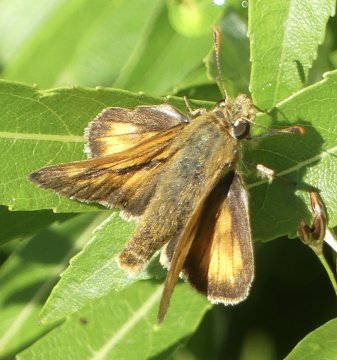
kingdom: Animalia
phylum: Arthropoda
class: Insecta
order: Lepidoptera
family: Hesperiidae
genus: Polites
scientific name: Polites
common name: Long Dash Skipper
